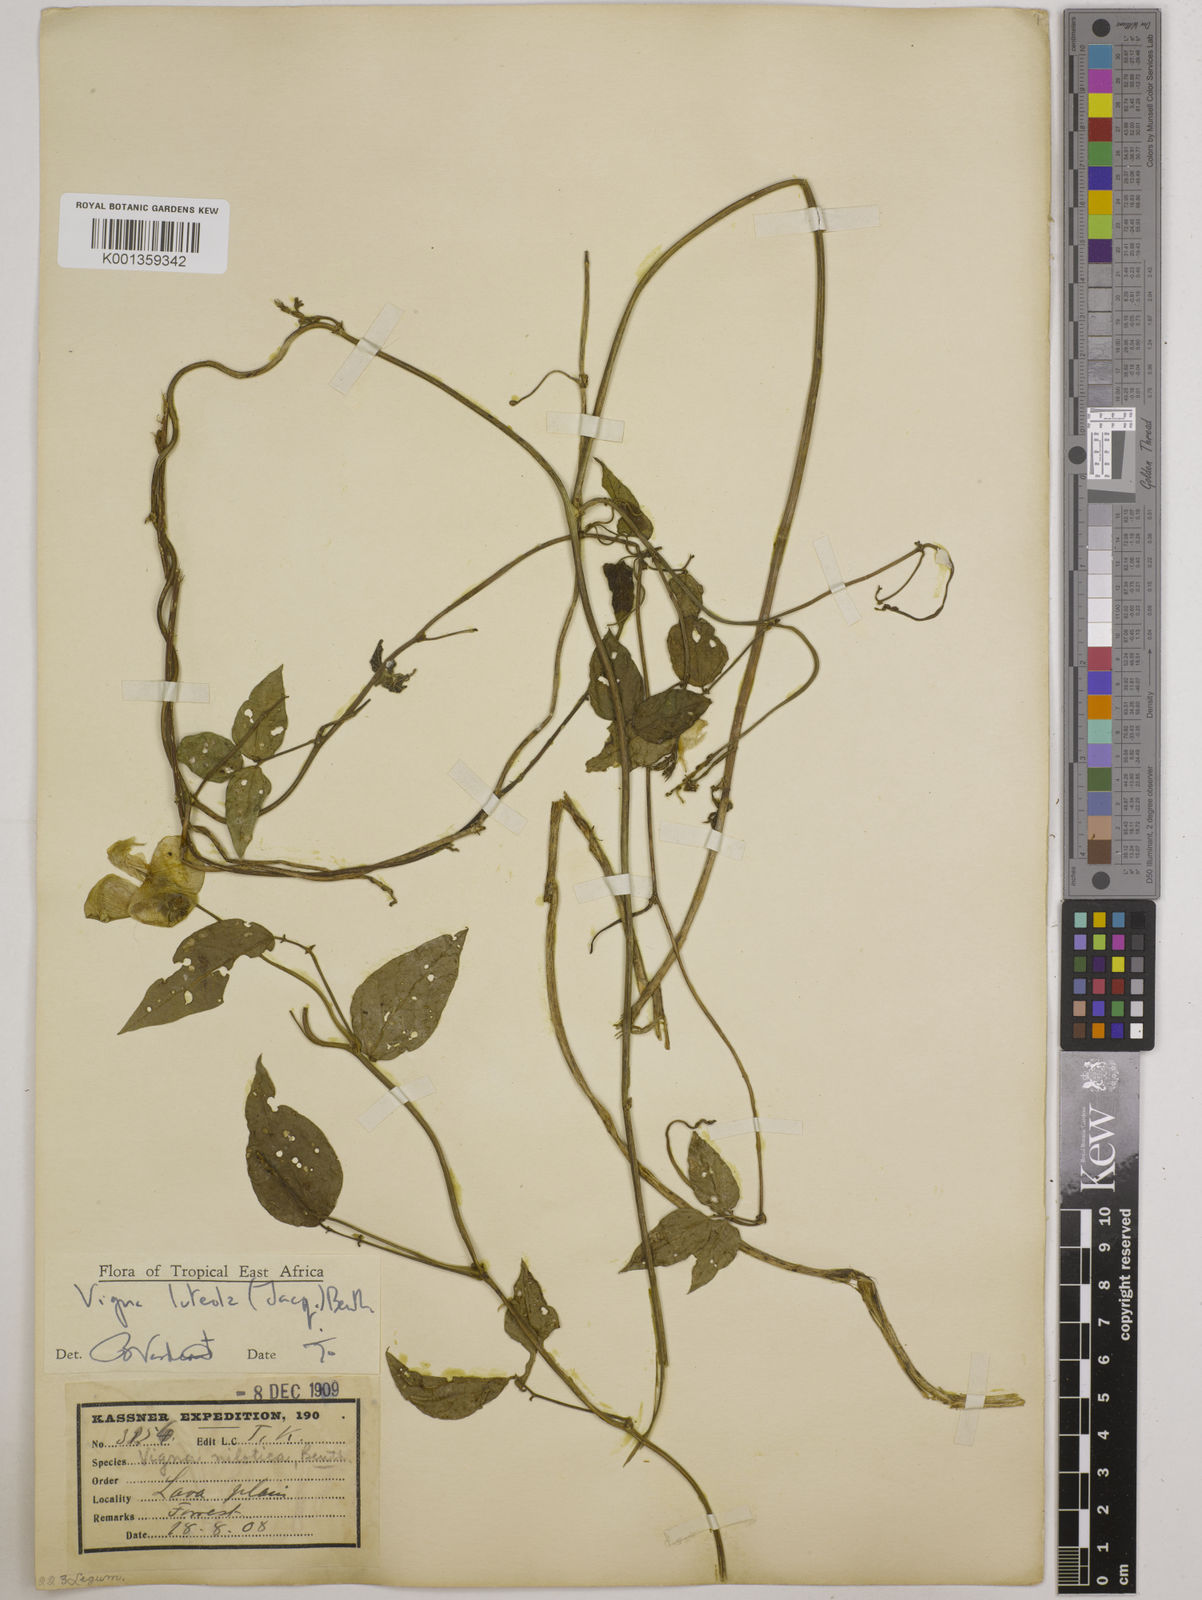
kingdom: Plantae
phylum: Tracheophyta
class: Magnoliopsida
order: Fabales
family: Fabaceae
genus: Vigna
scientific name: Vigna luteola
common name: Hairypod cowpea
